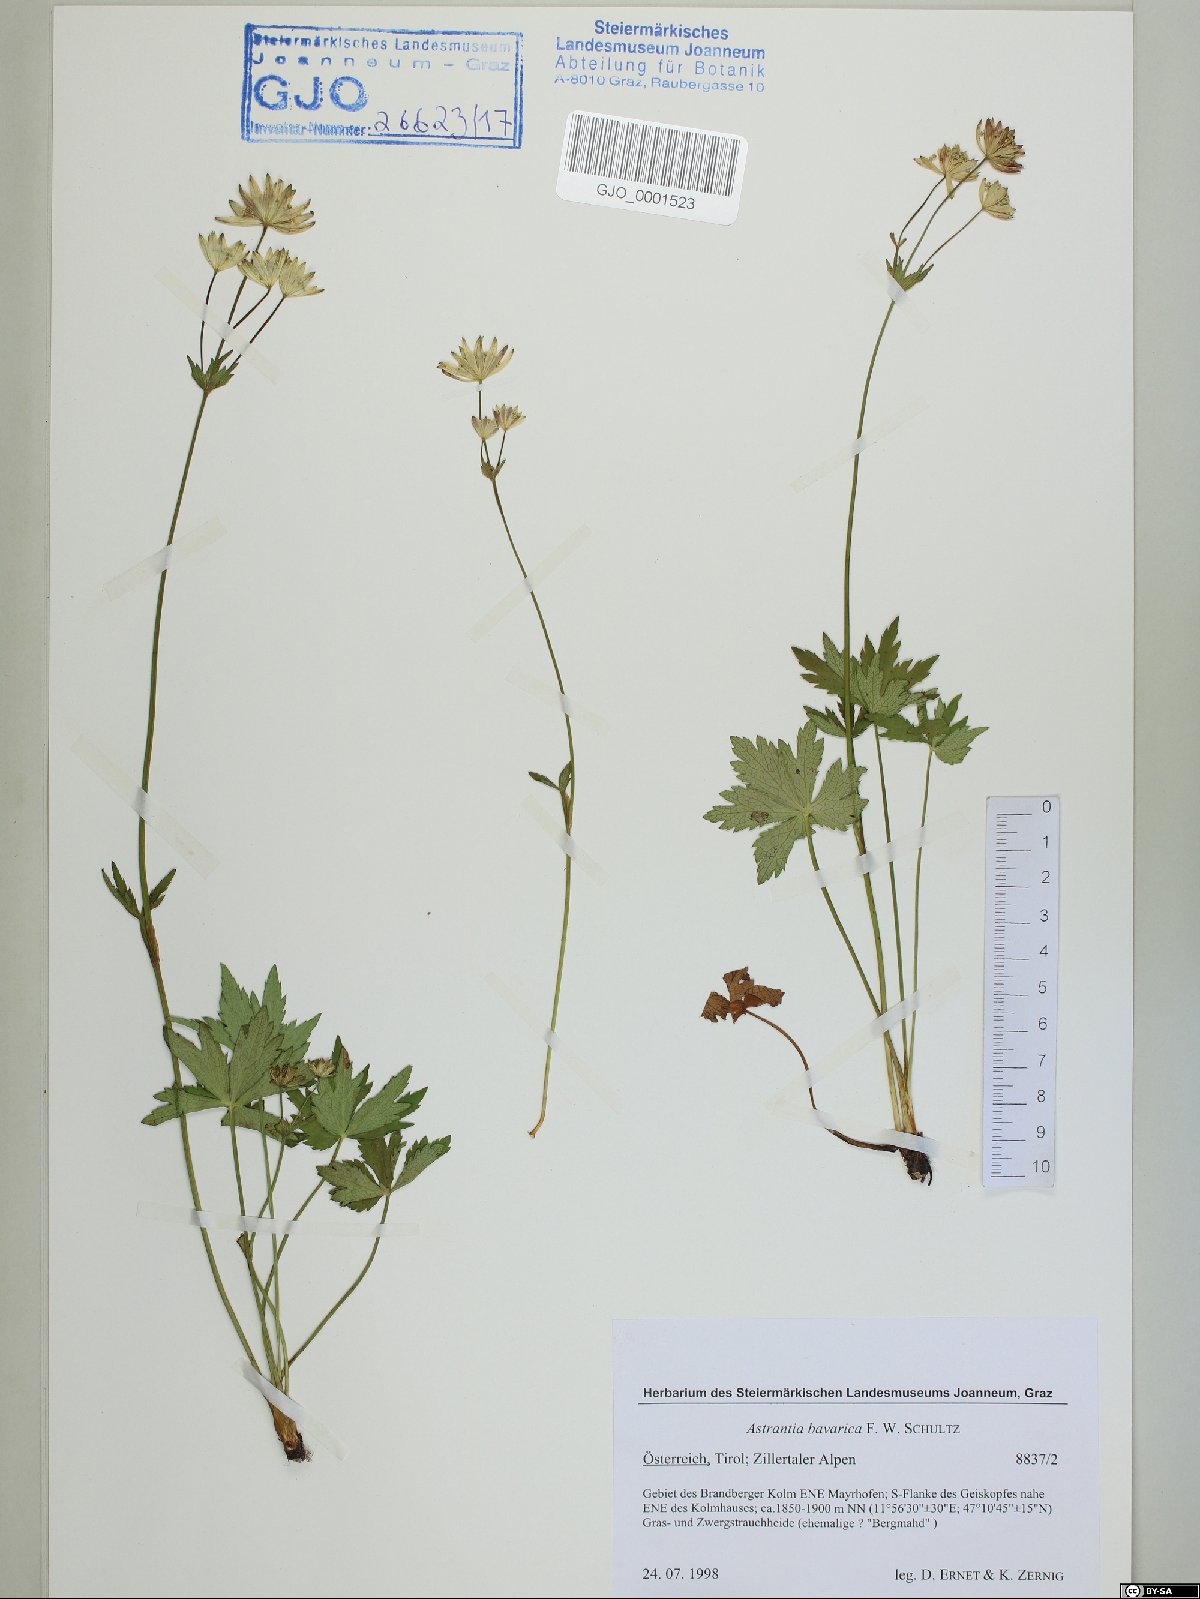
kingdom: Plantae
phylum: Tracheophyta
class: Magnoliopsida
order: Apiales
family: Apiaceae
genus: Astrantia
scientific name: Astrantia bavarica
